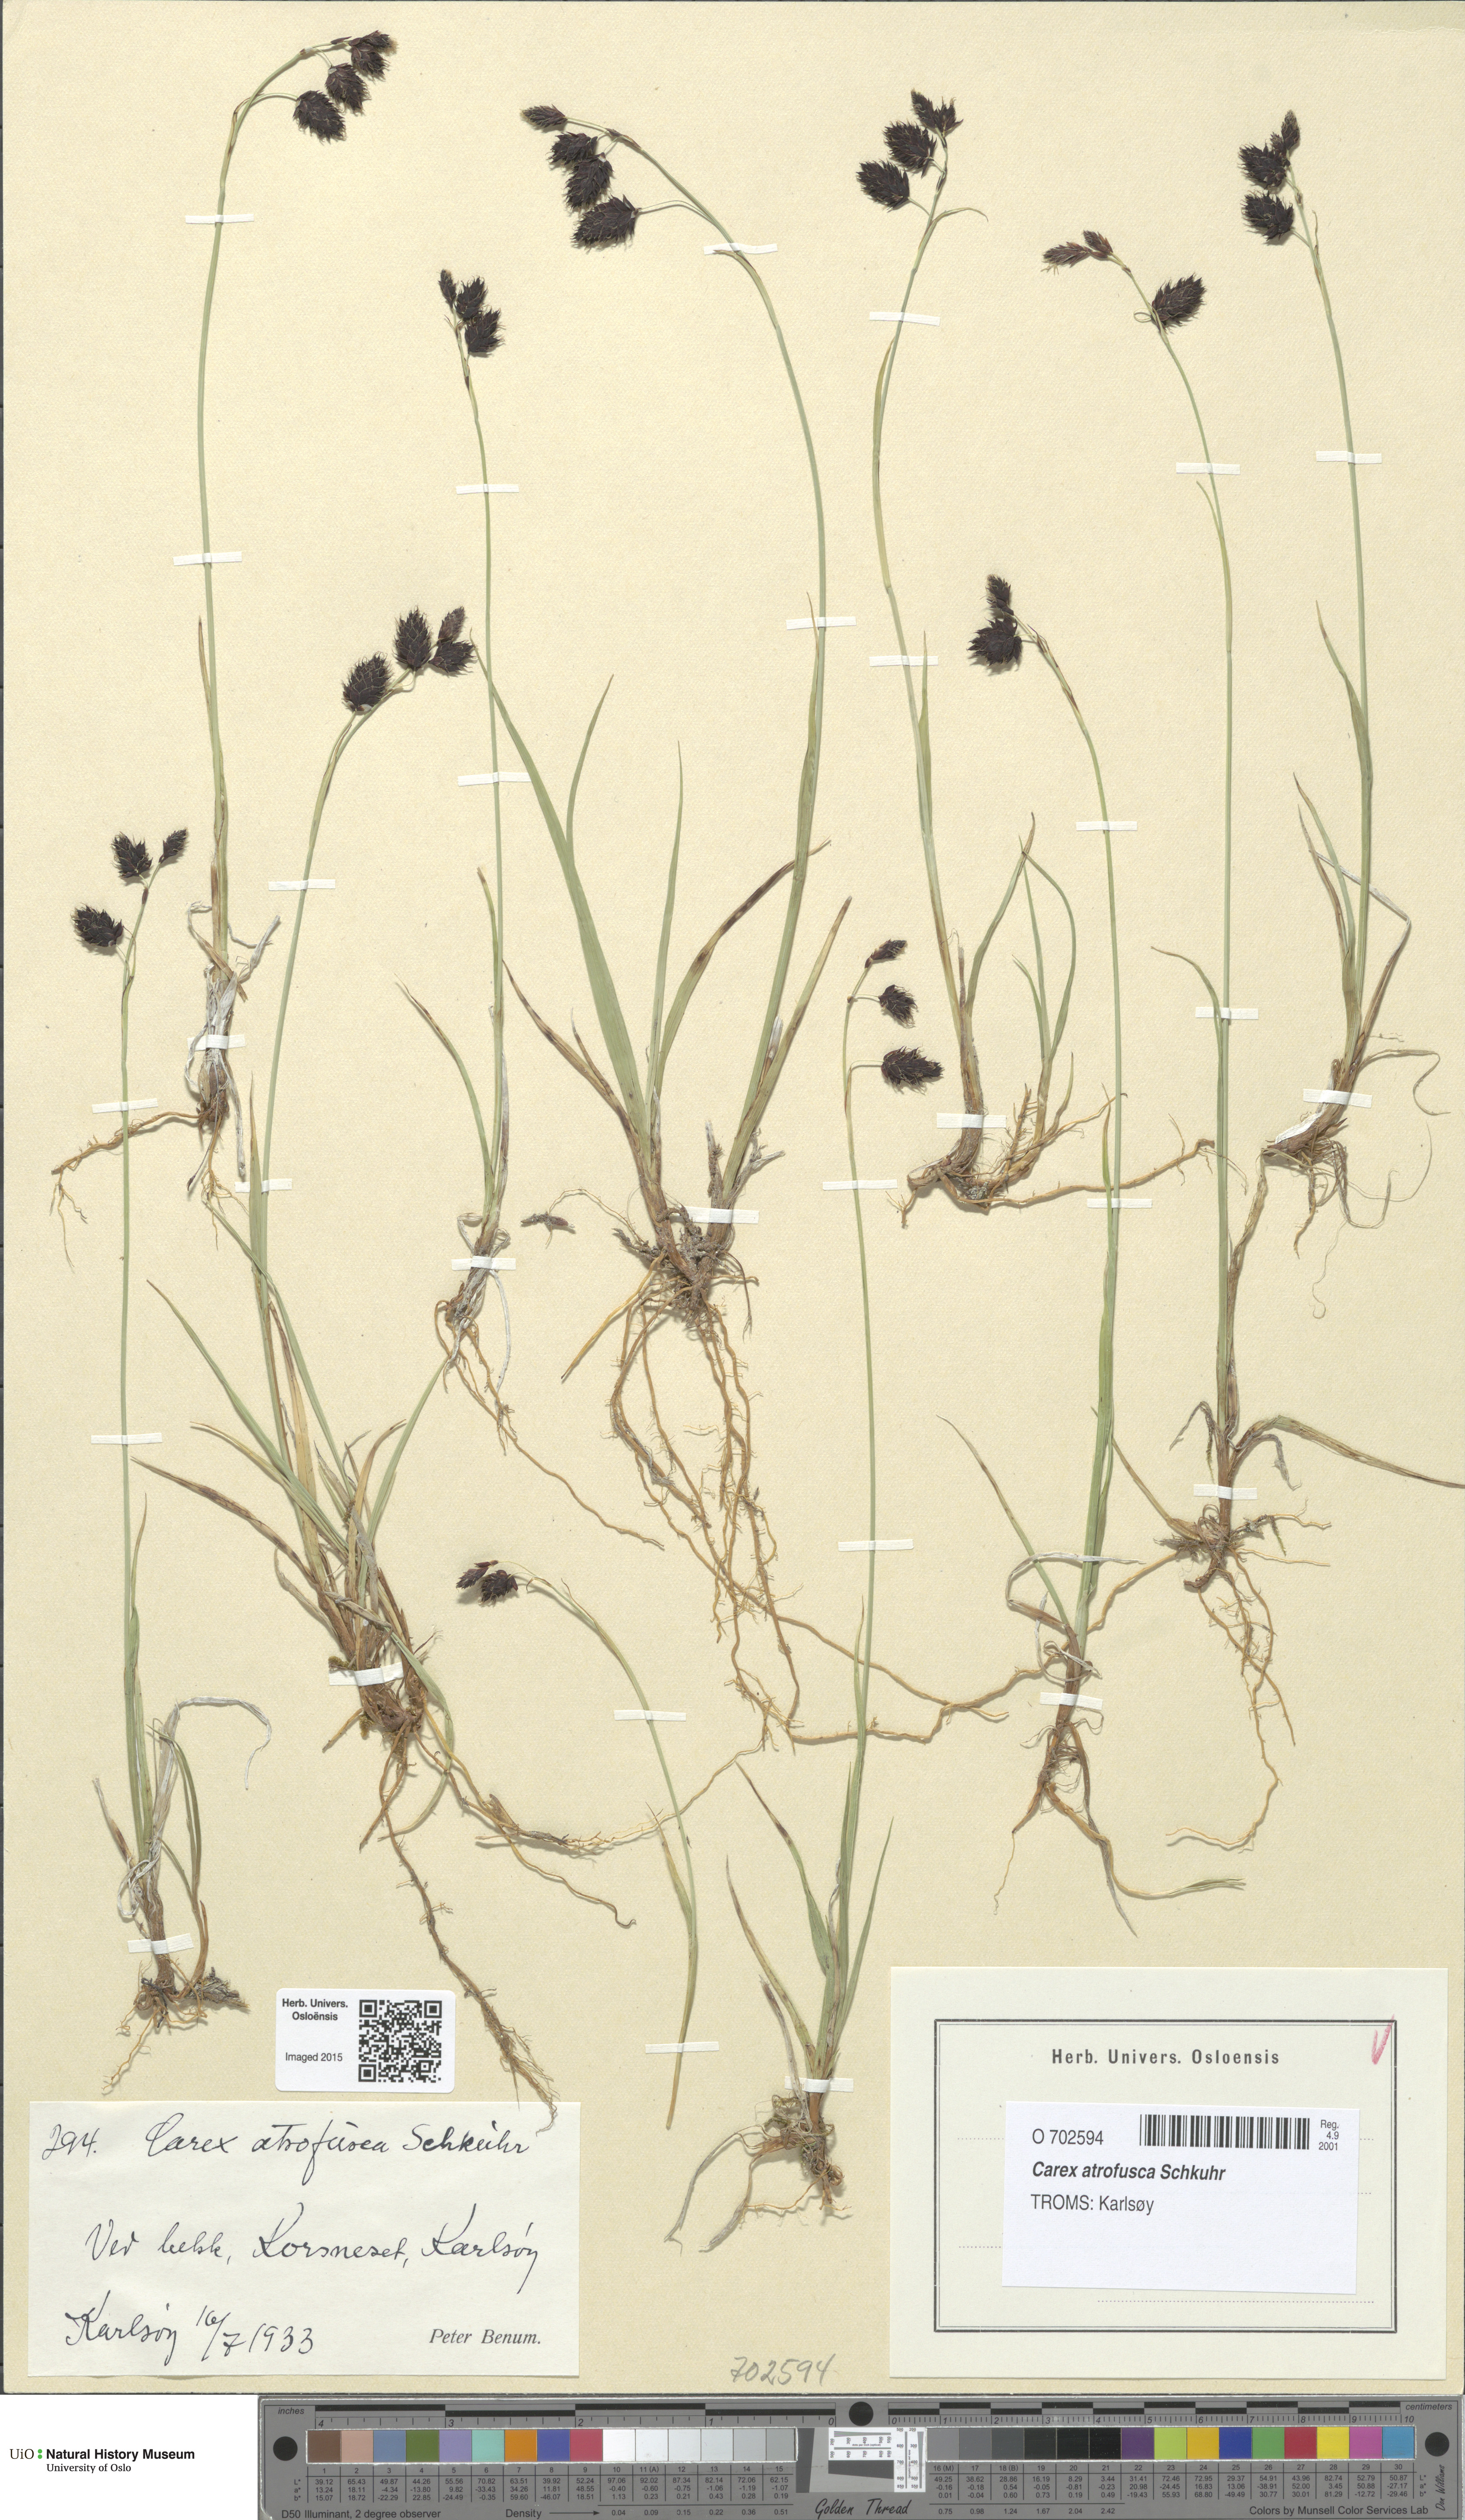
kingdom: Plantae
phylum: Tracheophyta
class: Liliopsida
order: Poales
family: Cyperaceae
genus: Carex
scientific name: Carex atrofusca
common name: Scorched alpine-sedge
